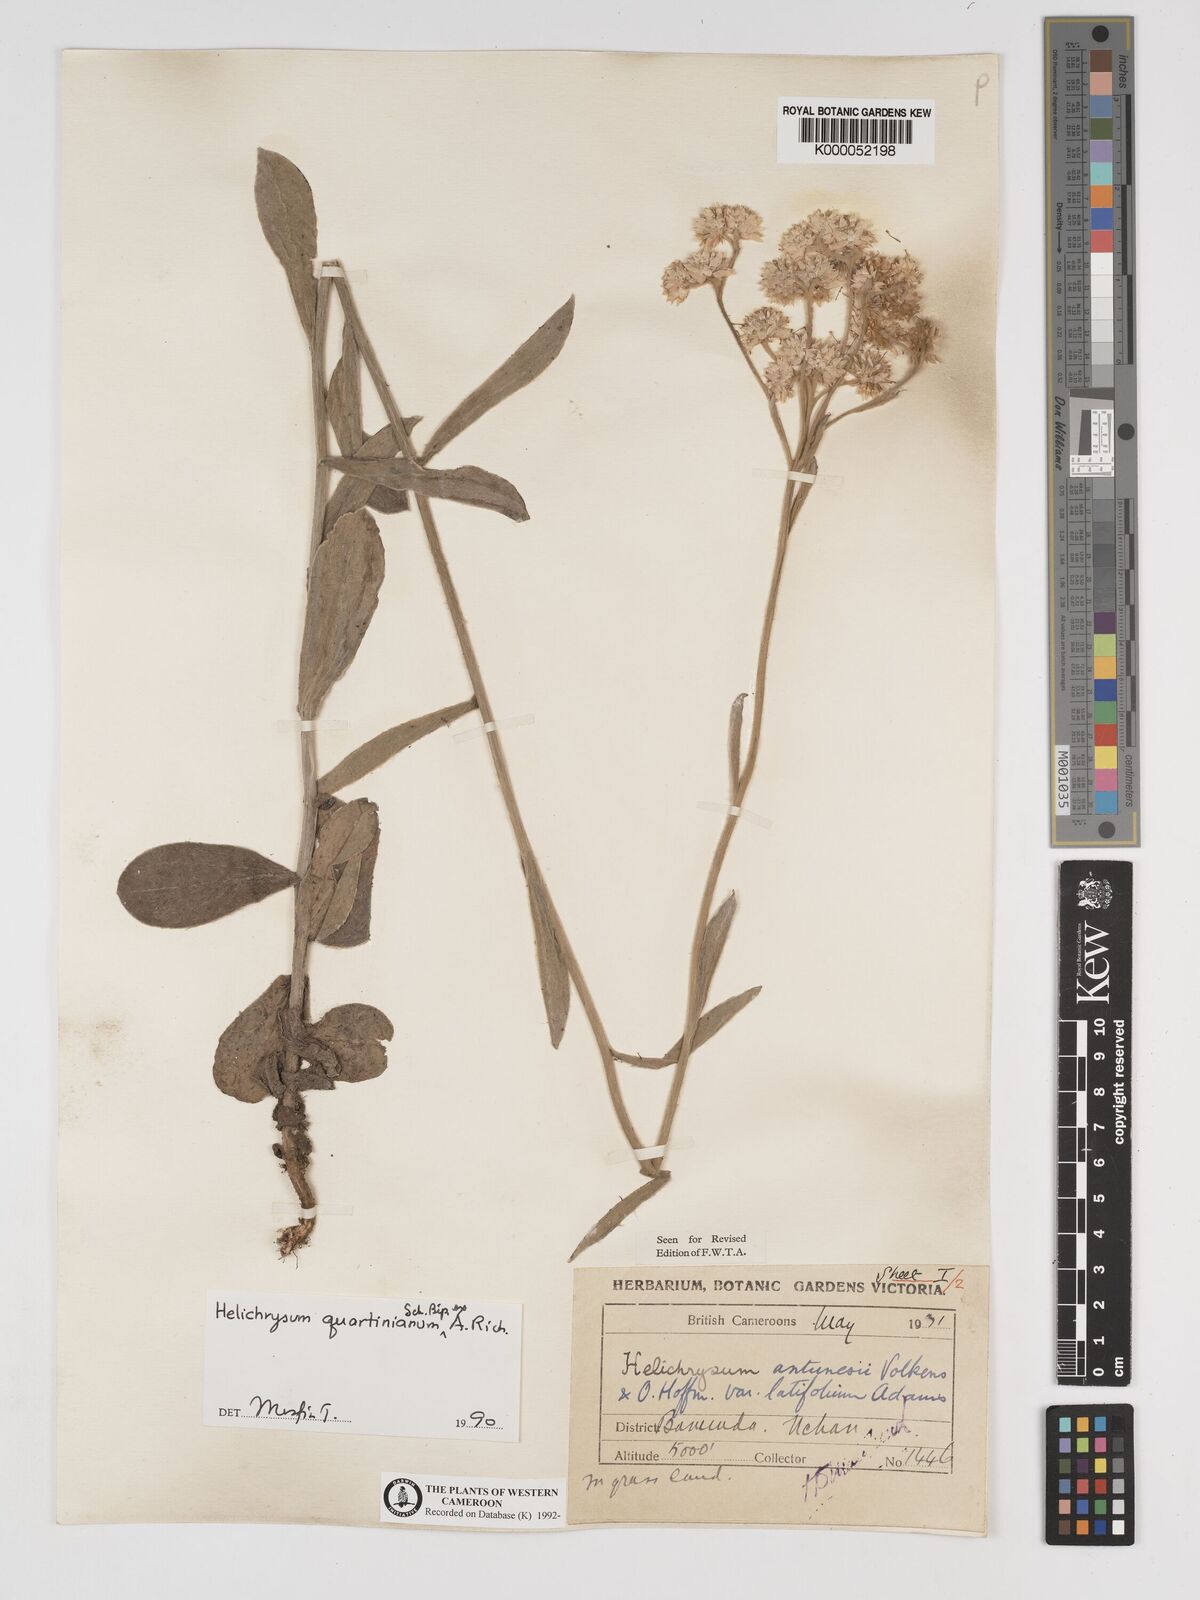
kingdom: Plantae
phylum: Tracheophyta
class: Magnoliopsida
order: Asterales
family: Asteraceae
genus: Helichrysum
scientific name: Helichrysum quartinianum
